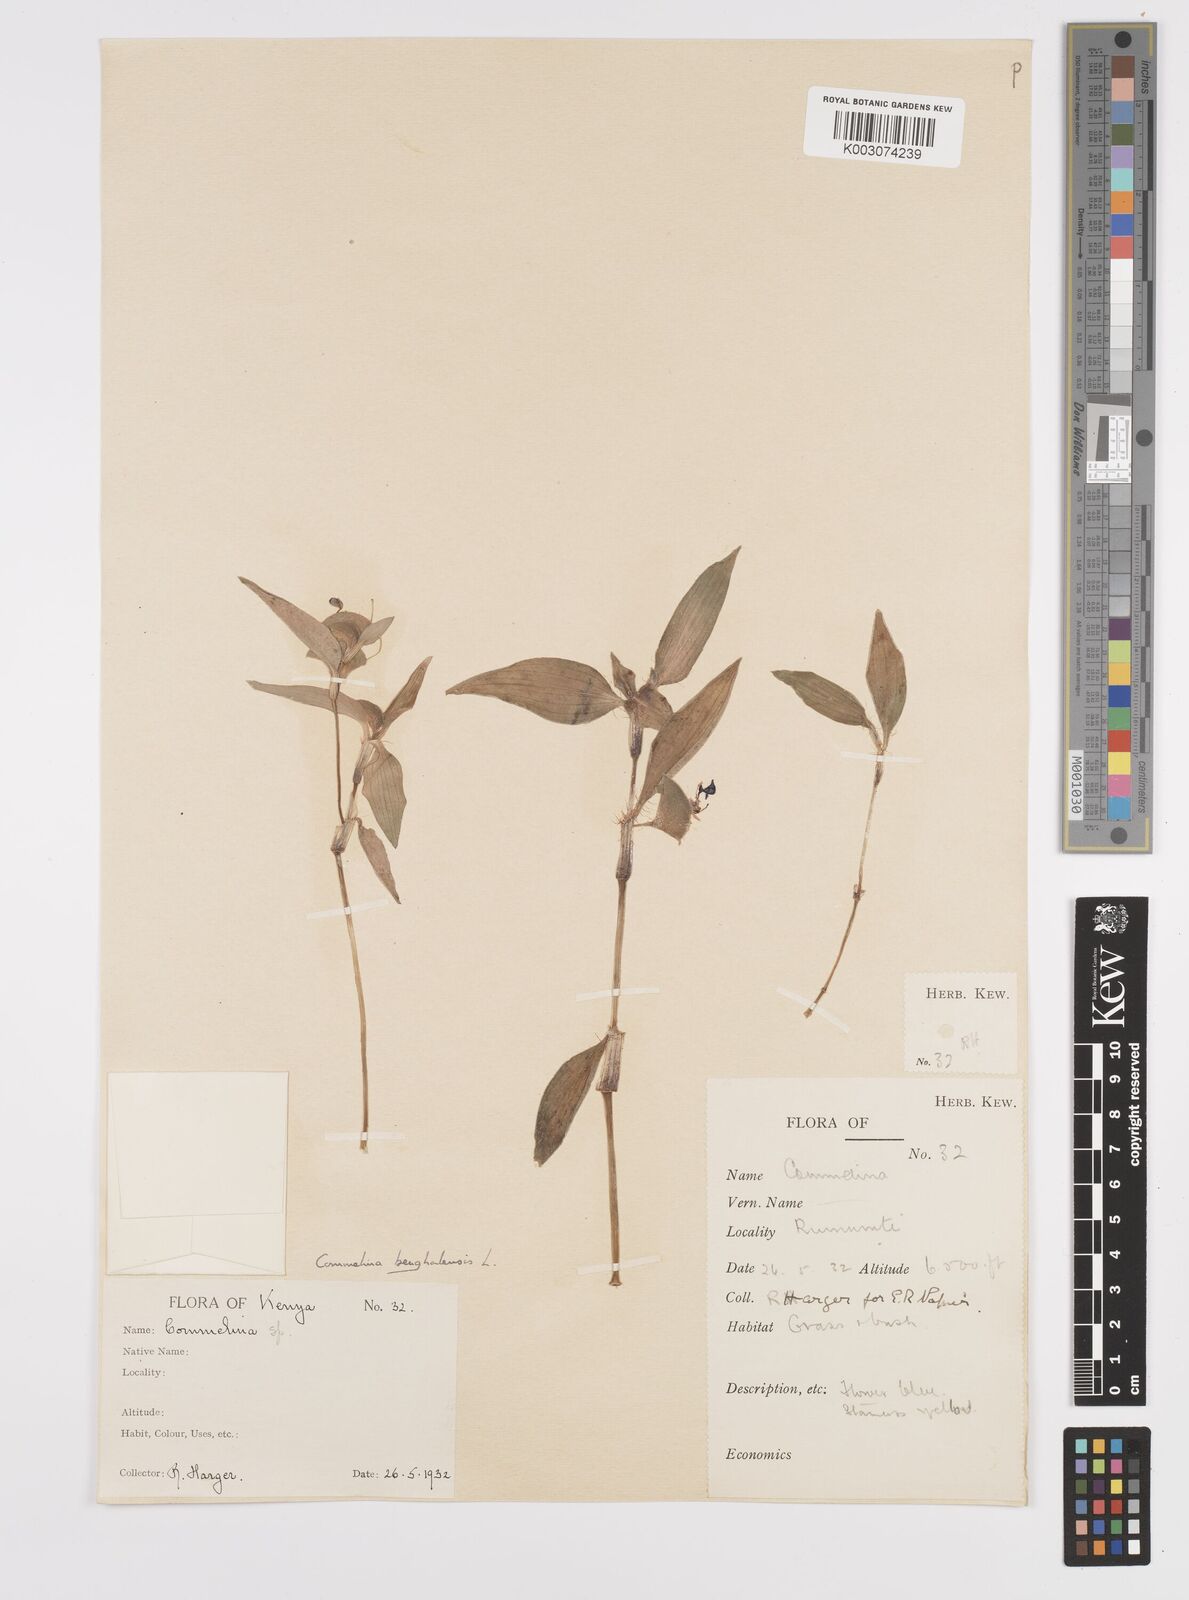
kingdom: Plantae
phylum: Tracheophyta
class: Liliopsida
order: Commelinales
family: Commelinaceae
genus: Commelina
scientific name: Commelina benghalensis
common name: Jio
